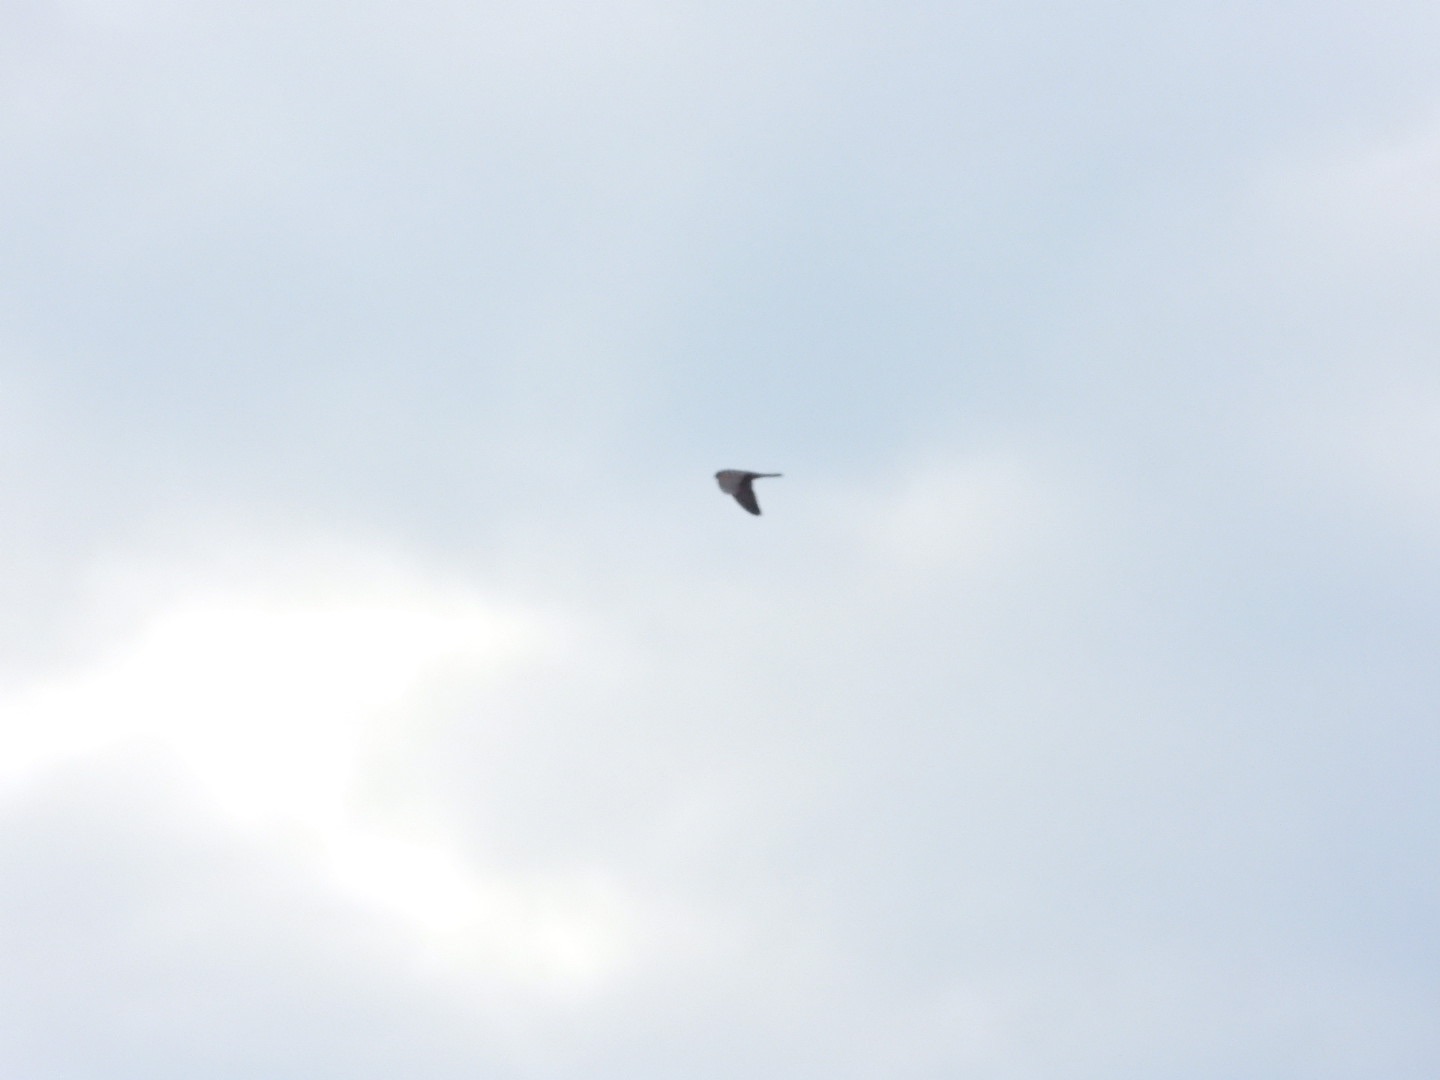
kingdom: Animalia
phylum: Chordata
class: Aves
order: Falconiformes
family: Falconidae
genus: Falco
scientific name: Falco vespertinus
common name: Aftenfalk
